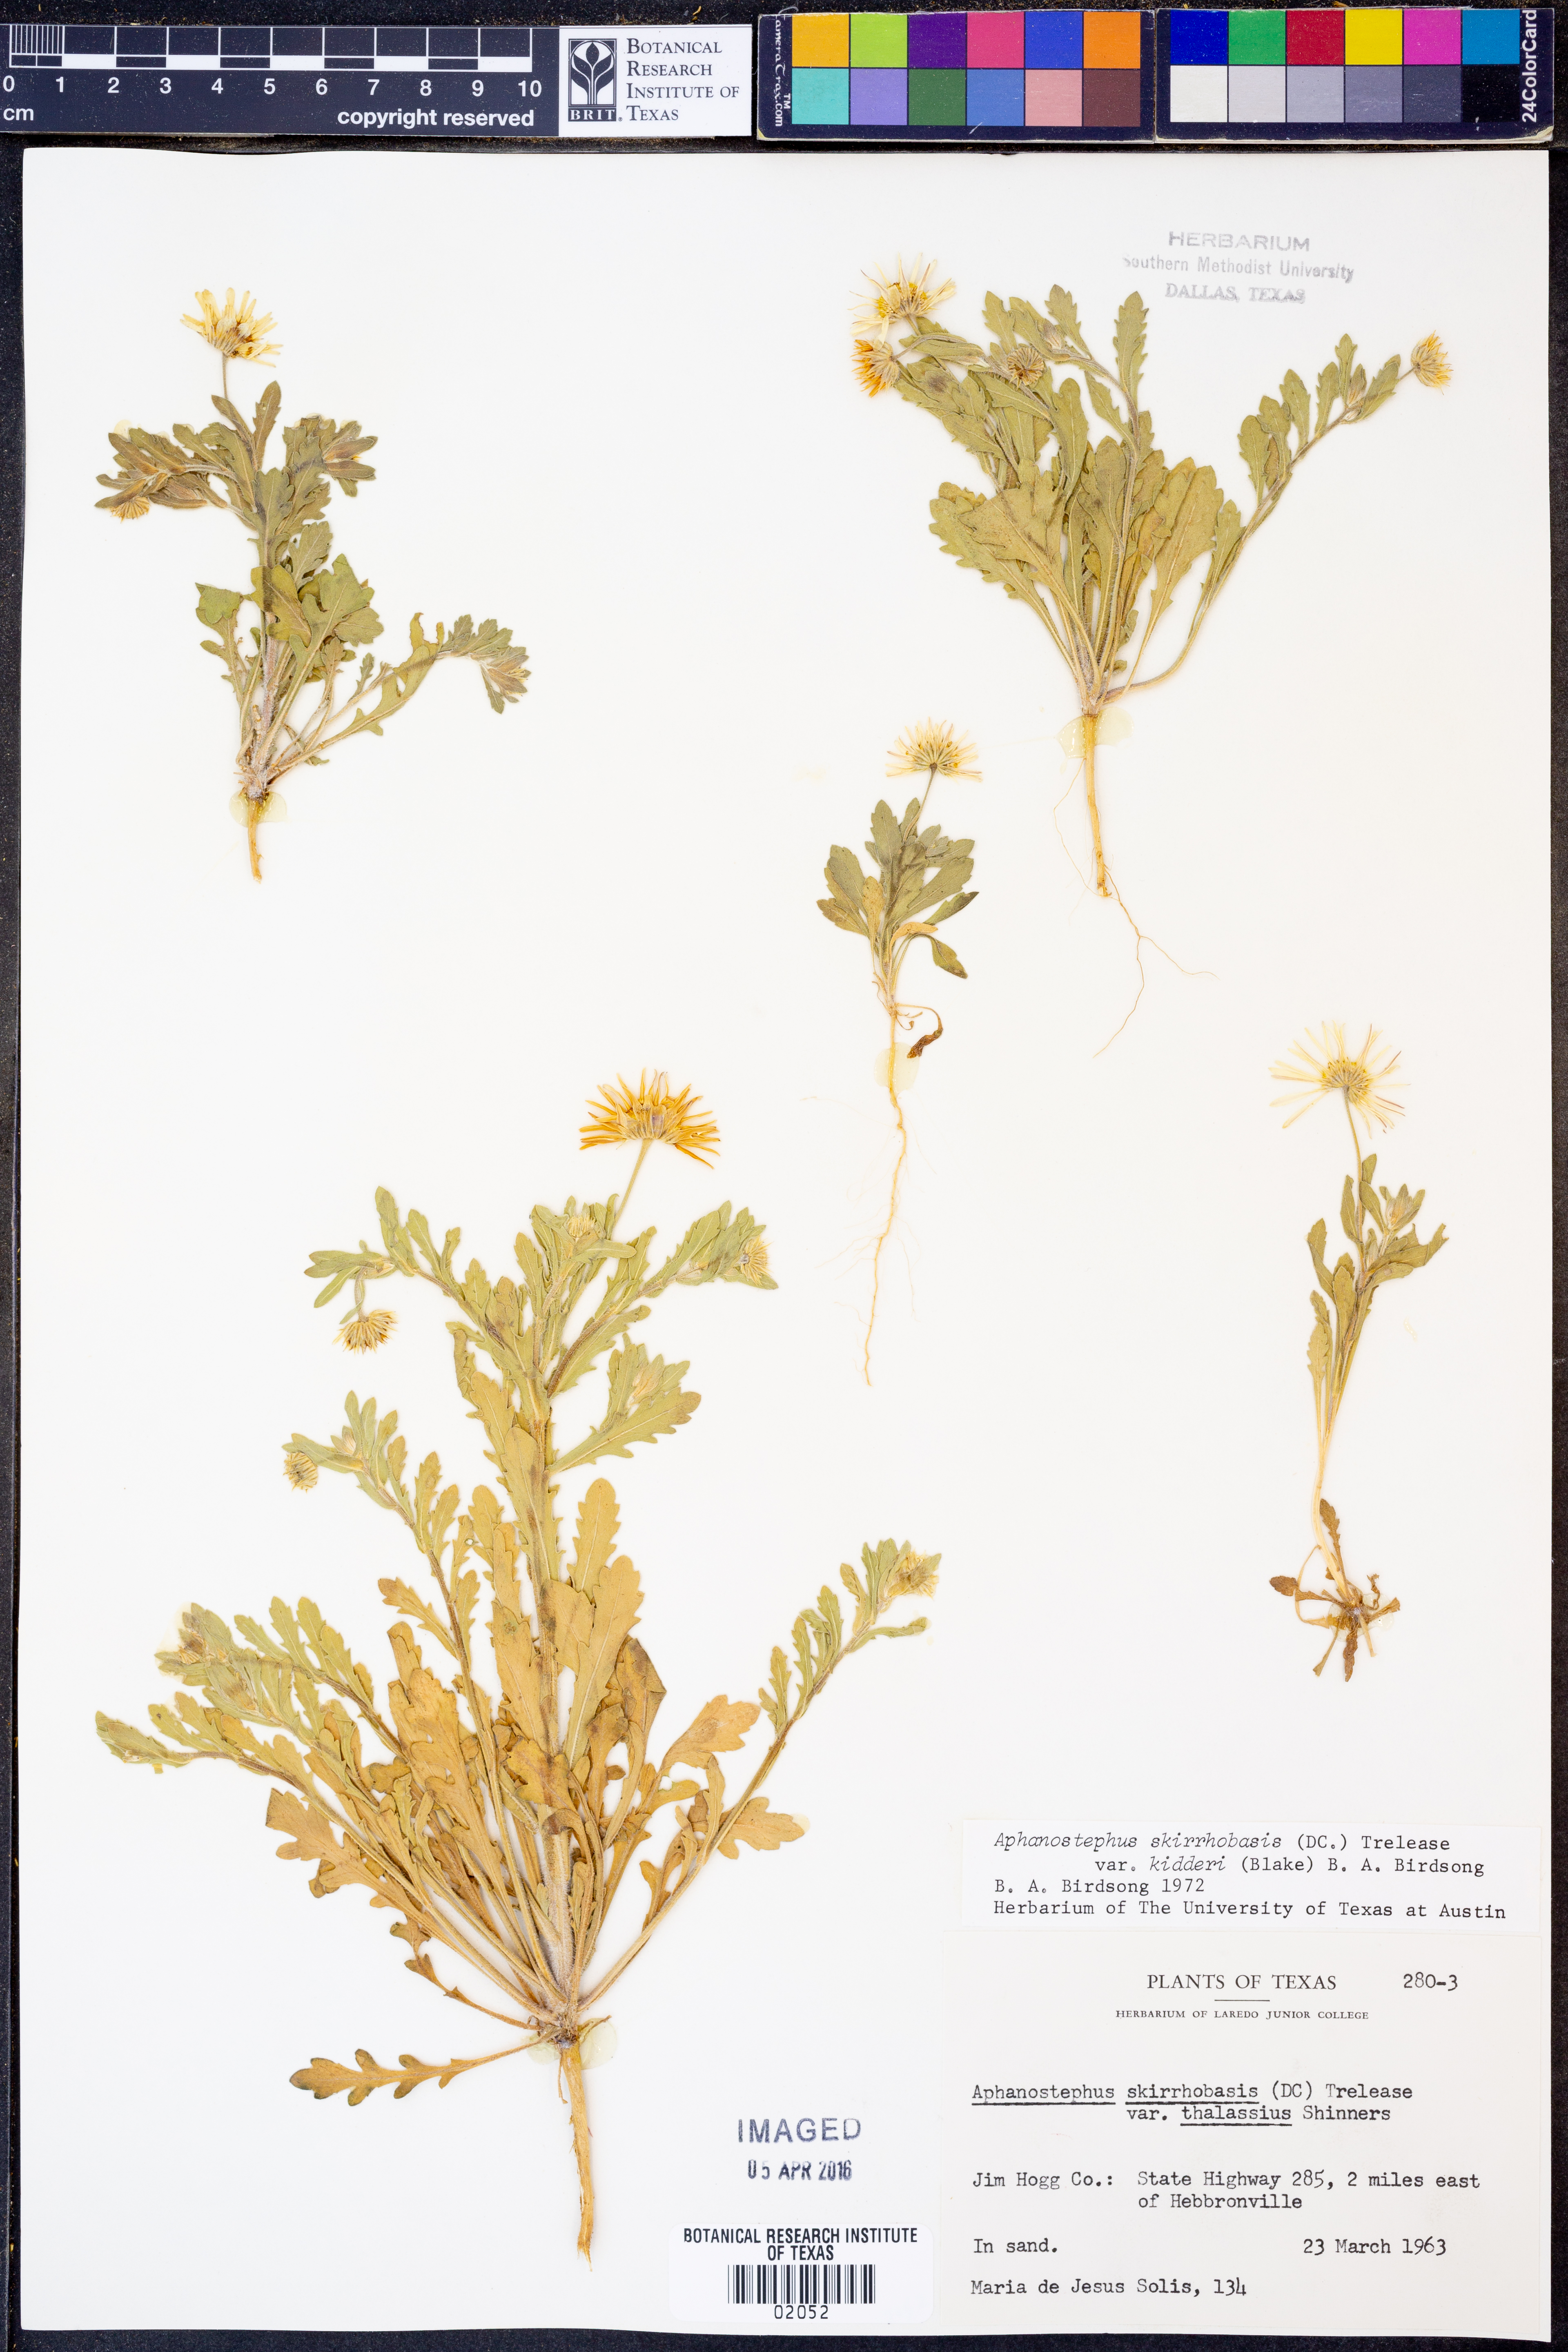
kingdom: Plantae
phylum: Tracheophyta
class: Magnoliopsida
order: Asterales
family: Asteraceae
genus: Aphanostephus
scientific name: Aphanostephus skirrhobasis
